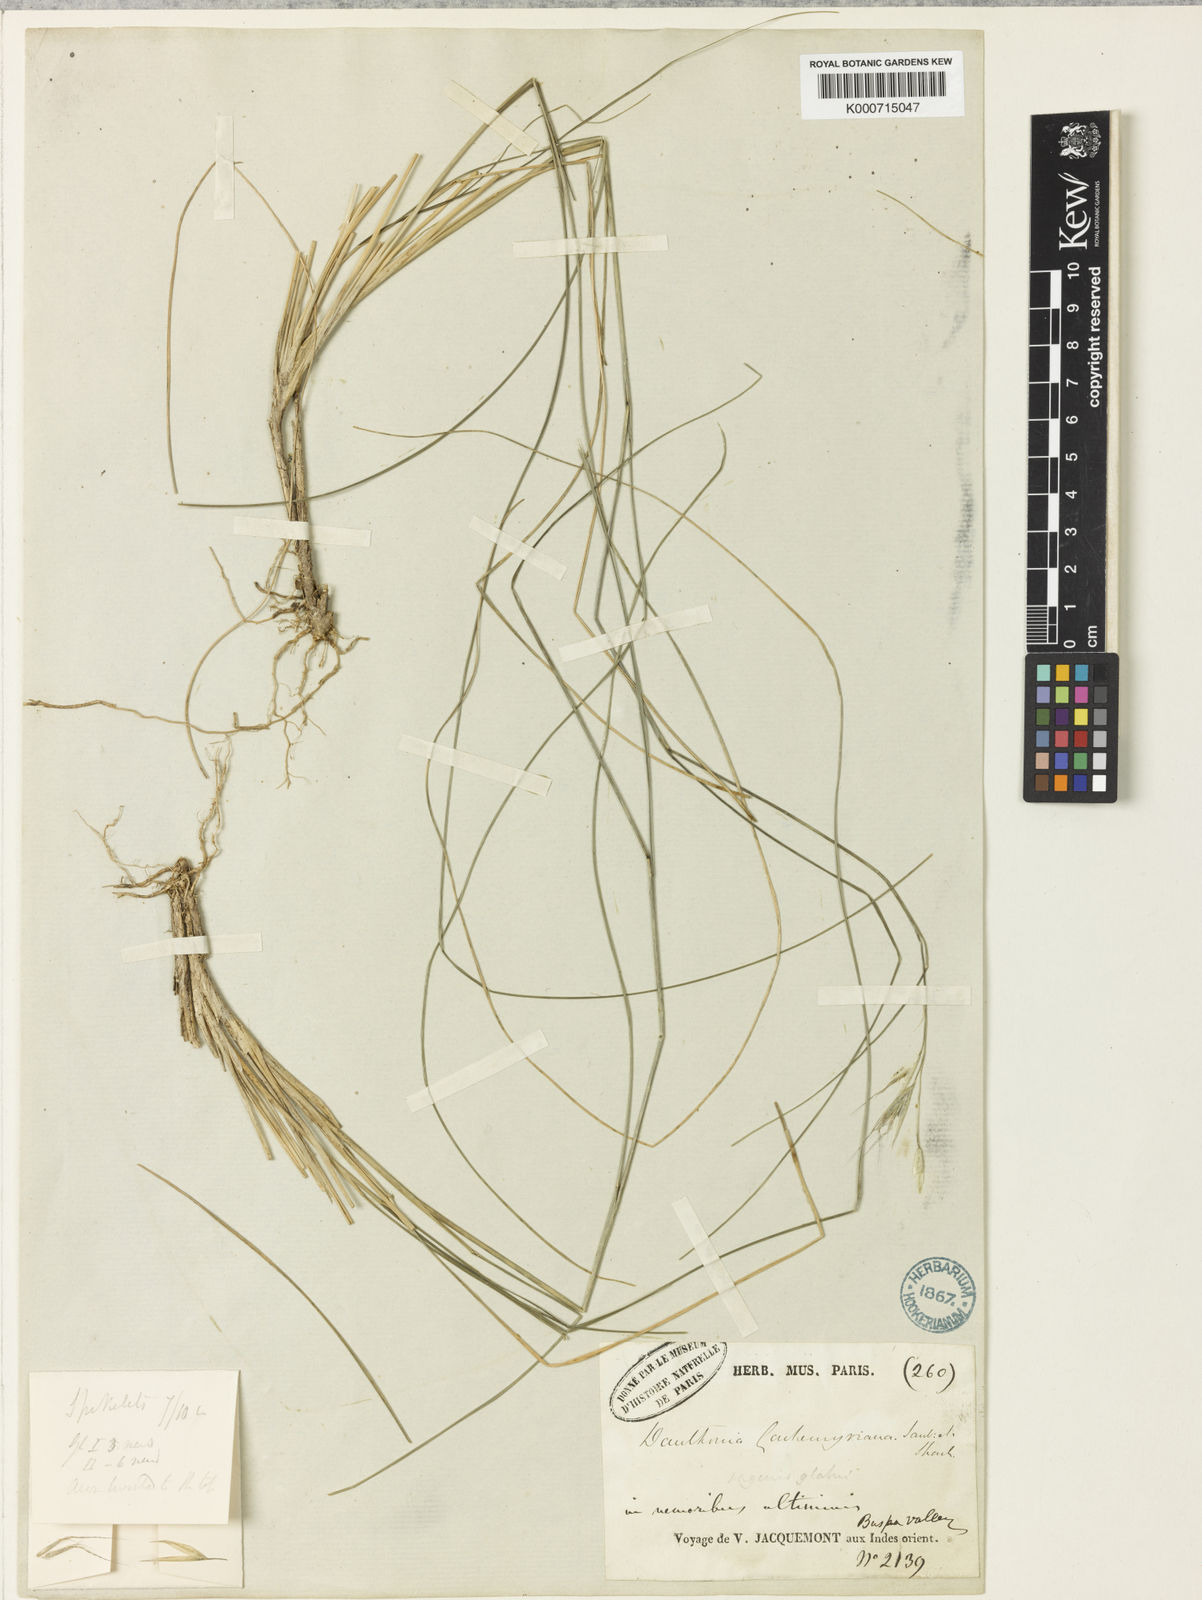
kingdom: Plantae
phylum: Tracheophyta
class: Liliopsida
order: Poales
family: Poaceae
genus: Rytidosperma
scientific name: Rytidosperma
